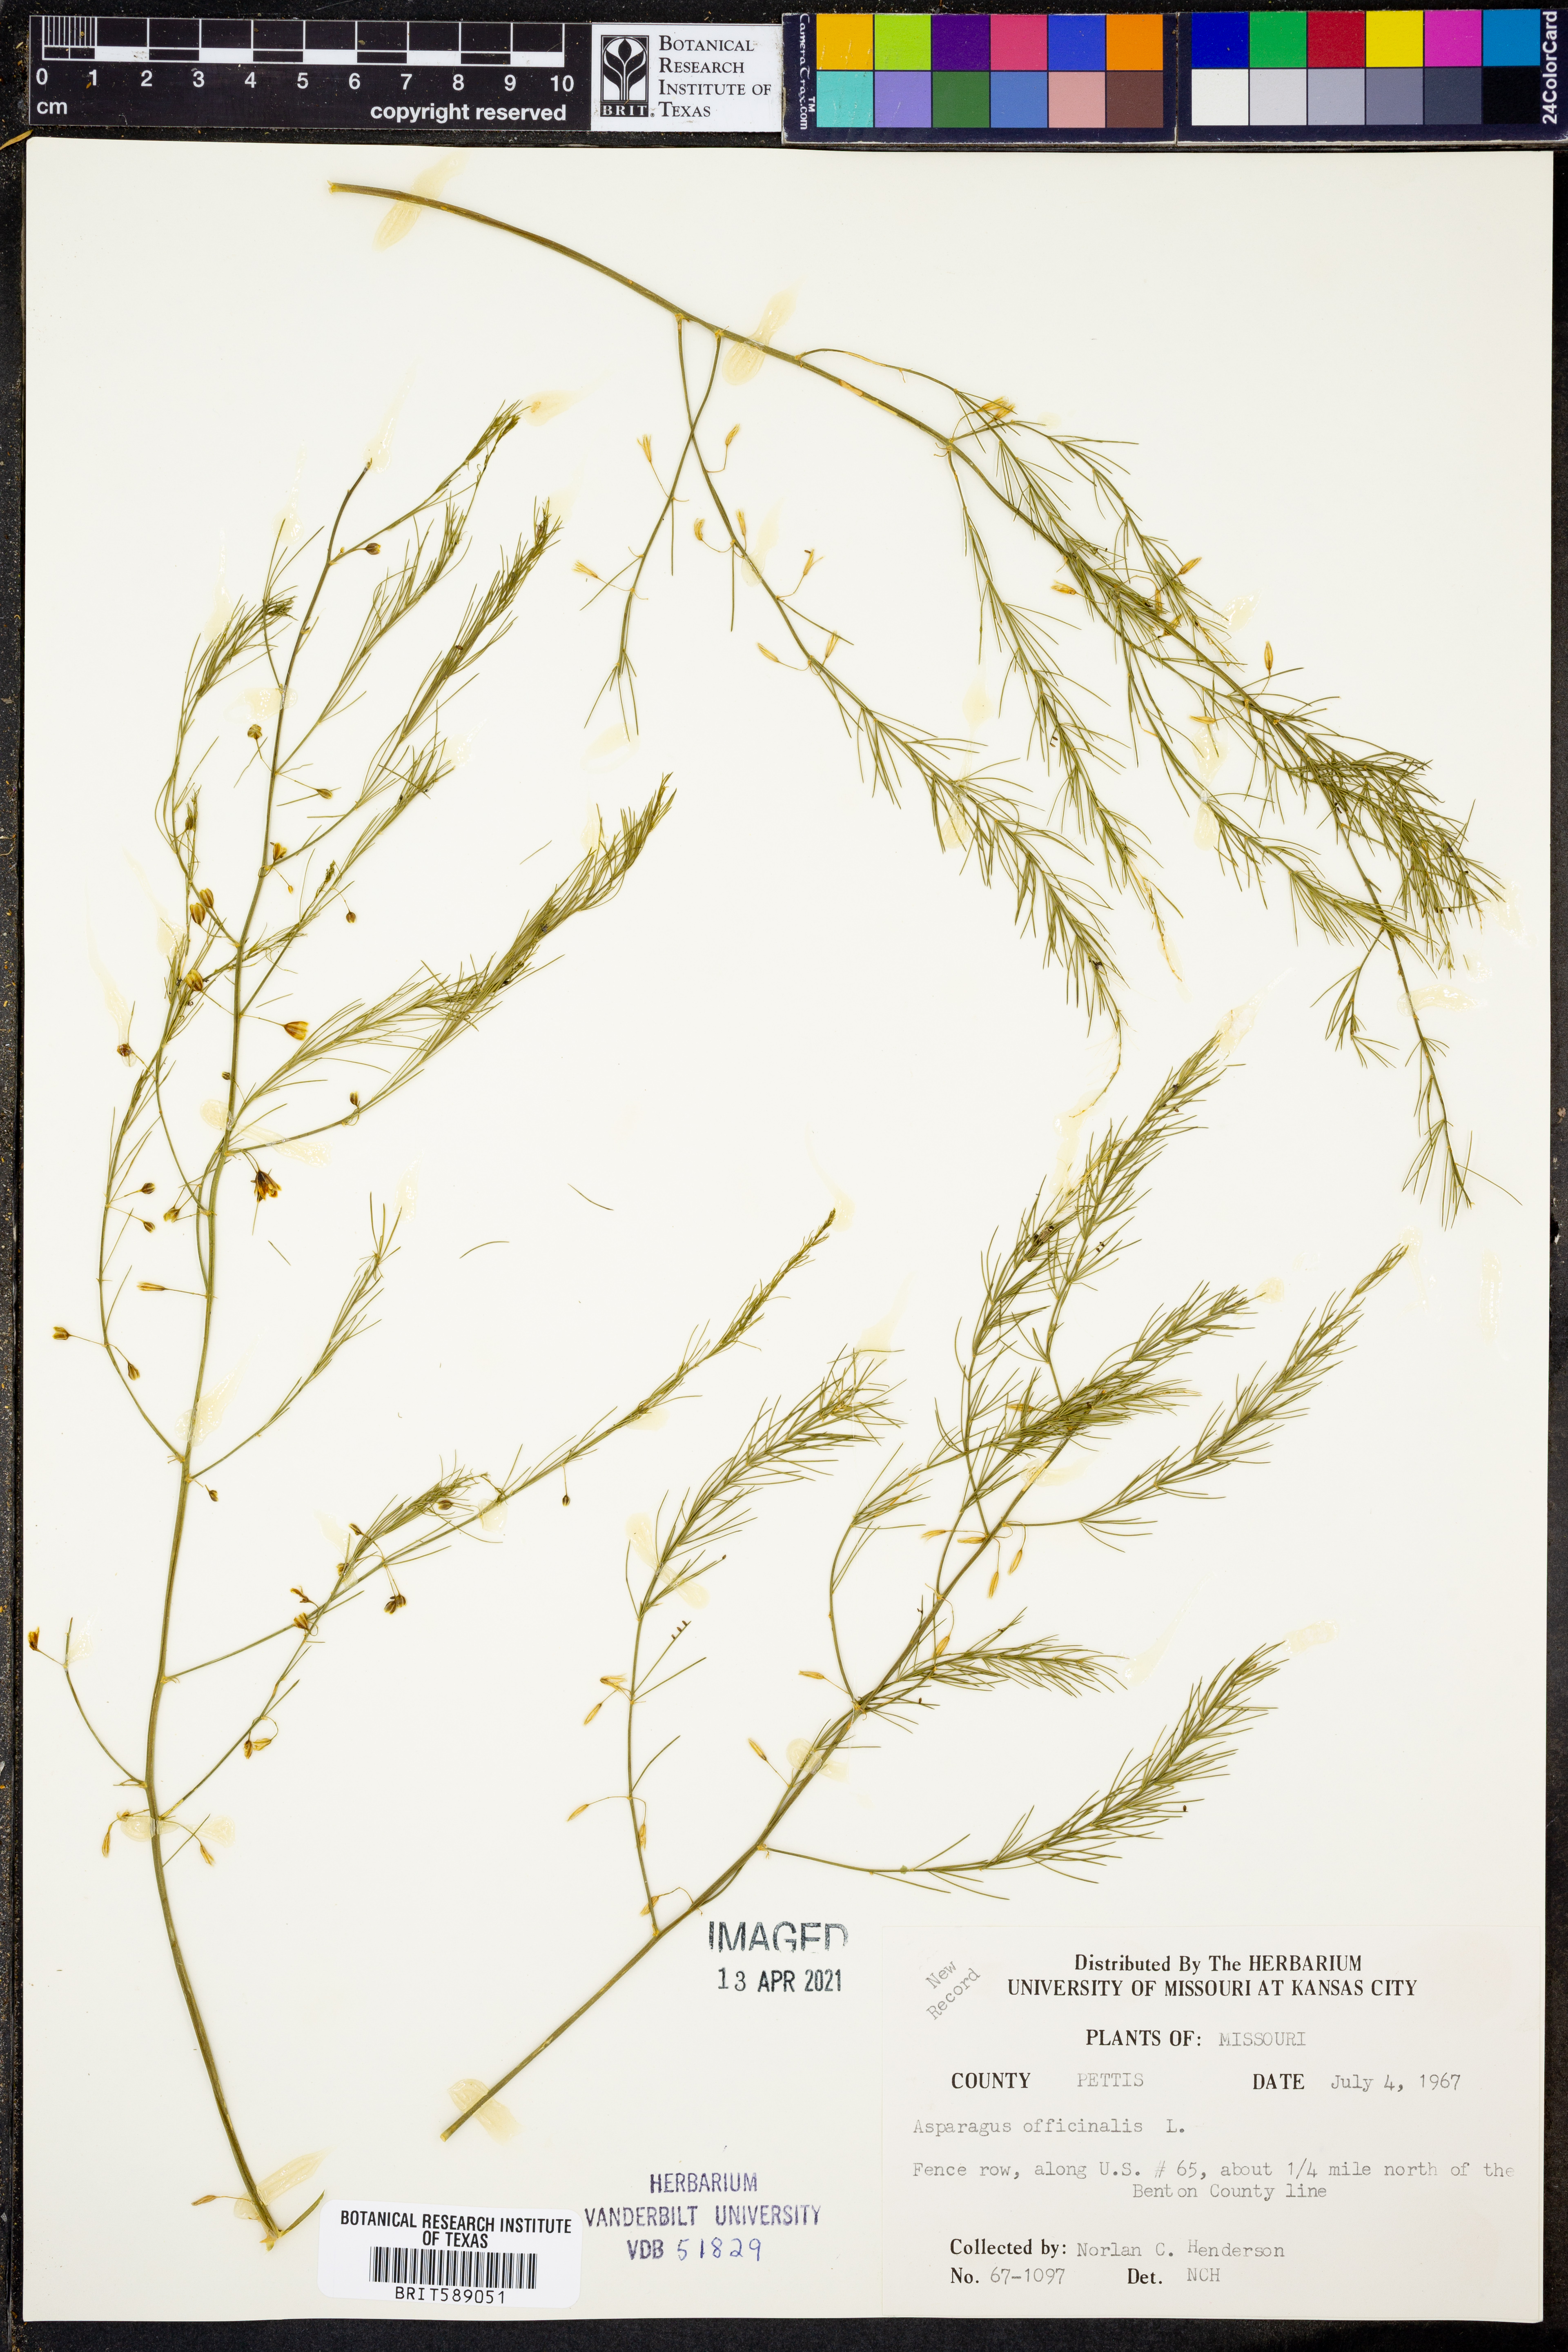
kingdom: Plantae
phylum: Tracheophyta
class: Liliopsida
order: Asparagales
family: Asparagaceae
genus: Asparagus
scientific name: Asparagus officinalis
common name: Garden asparagus
